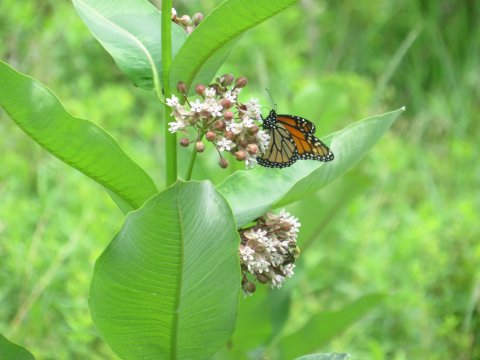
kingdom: Animalia
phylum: Arthropoda
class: Insecta
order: Lepidoptera
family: Nymphalidae
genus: Danaus
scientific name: Danaus plexippus
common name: Monarch
